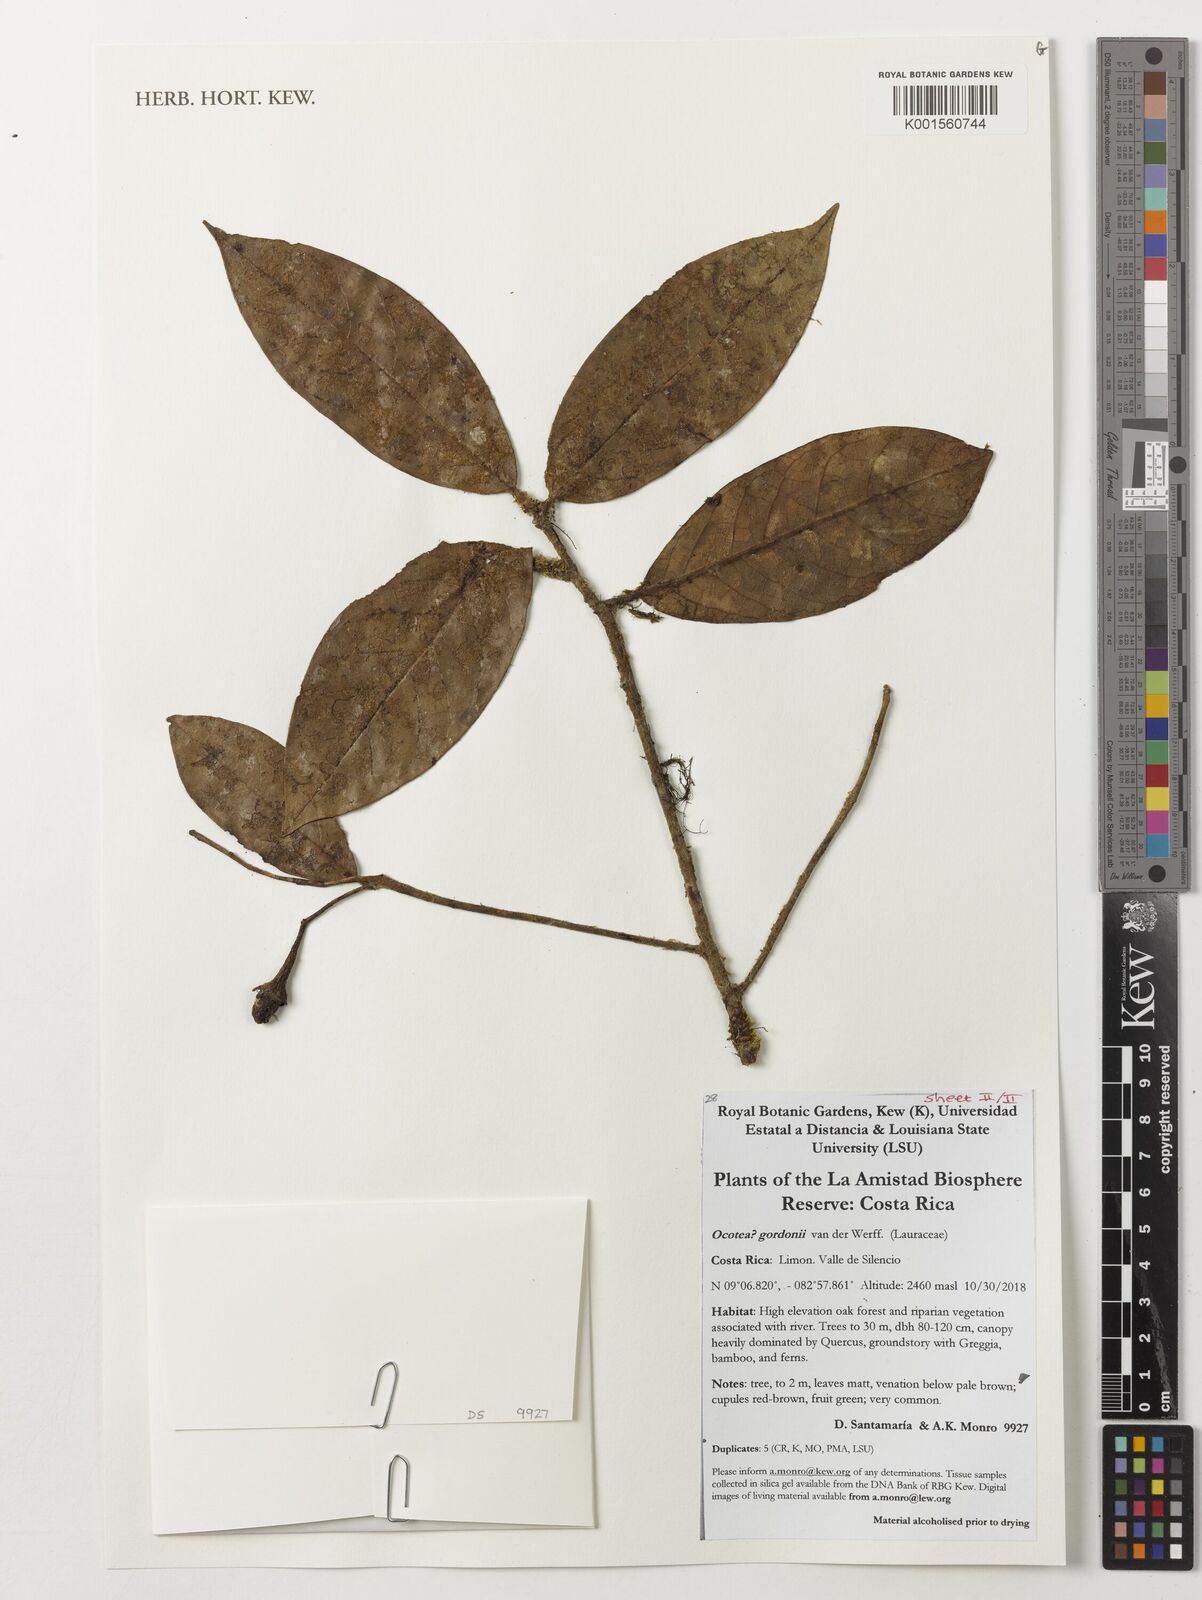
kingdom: Plantae
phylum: Tracheophyta
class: Magnoliopsida
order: Laurales
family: Lauraceae
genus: Ocotea
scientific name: Ocotea gordonii
